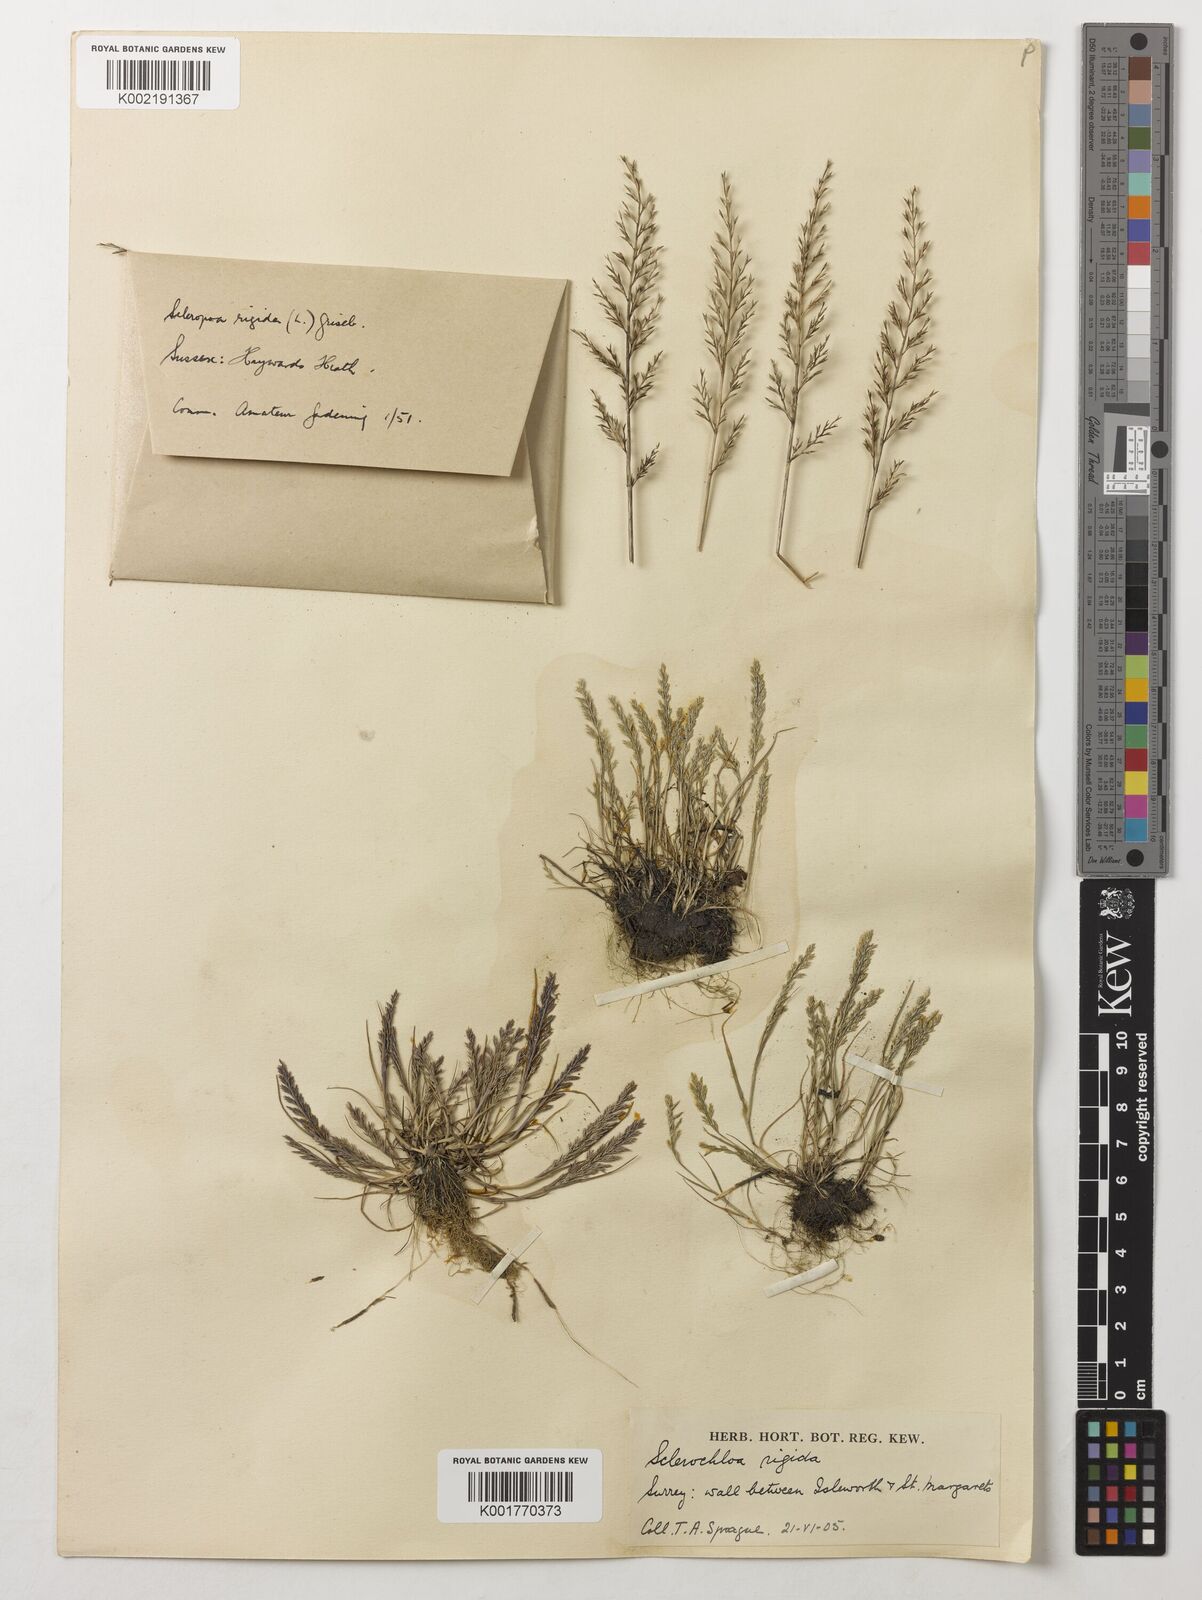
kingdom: Plantae
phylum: Tracheophyta
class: Liliopsida
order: Poales
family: Poaceae
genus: Catapodium
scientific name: Catapodium rigidum
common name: Fern-grass
